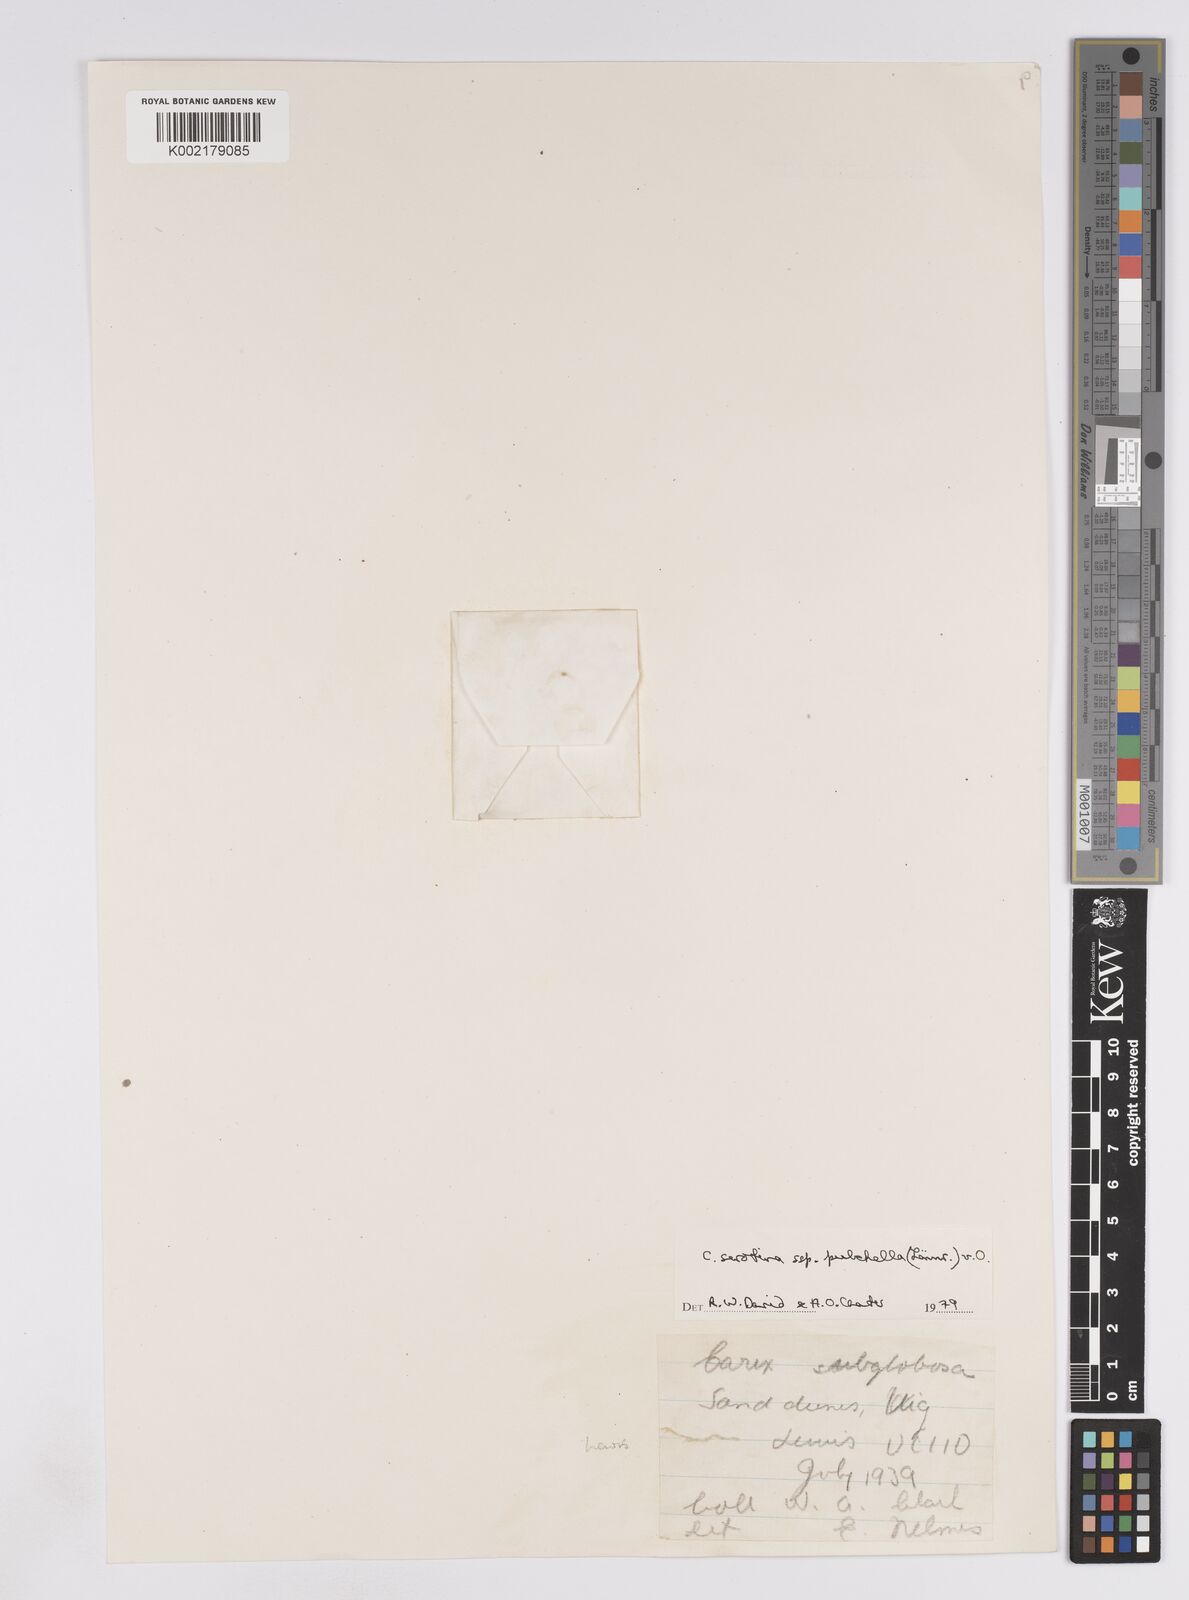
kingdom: Plantae
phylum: Tracheophyta
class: Liliopsida
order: Poales
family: Cyperaceae
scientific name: Cyperaceae
